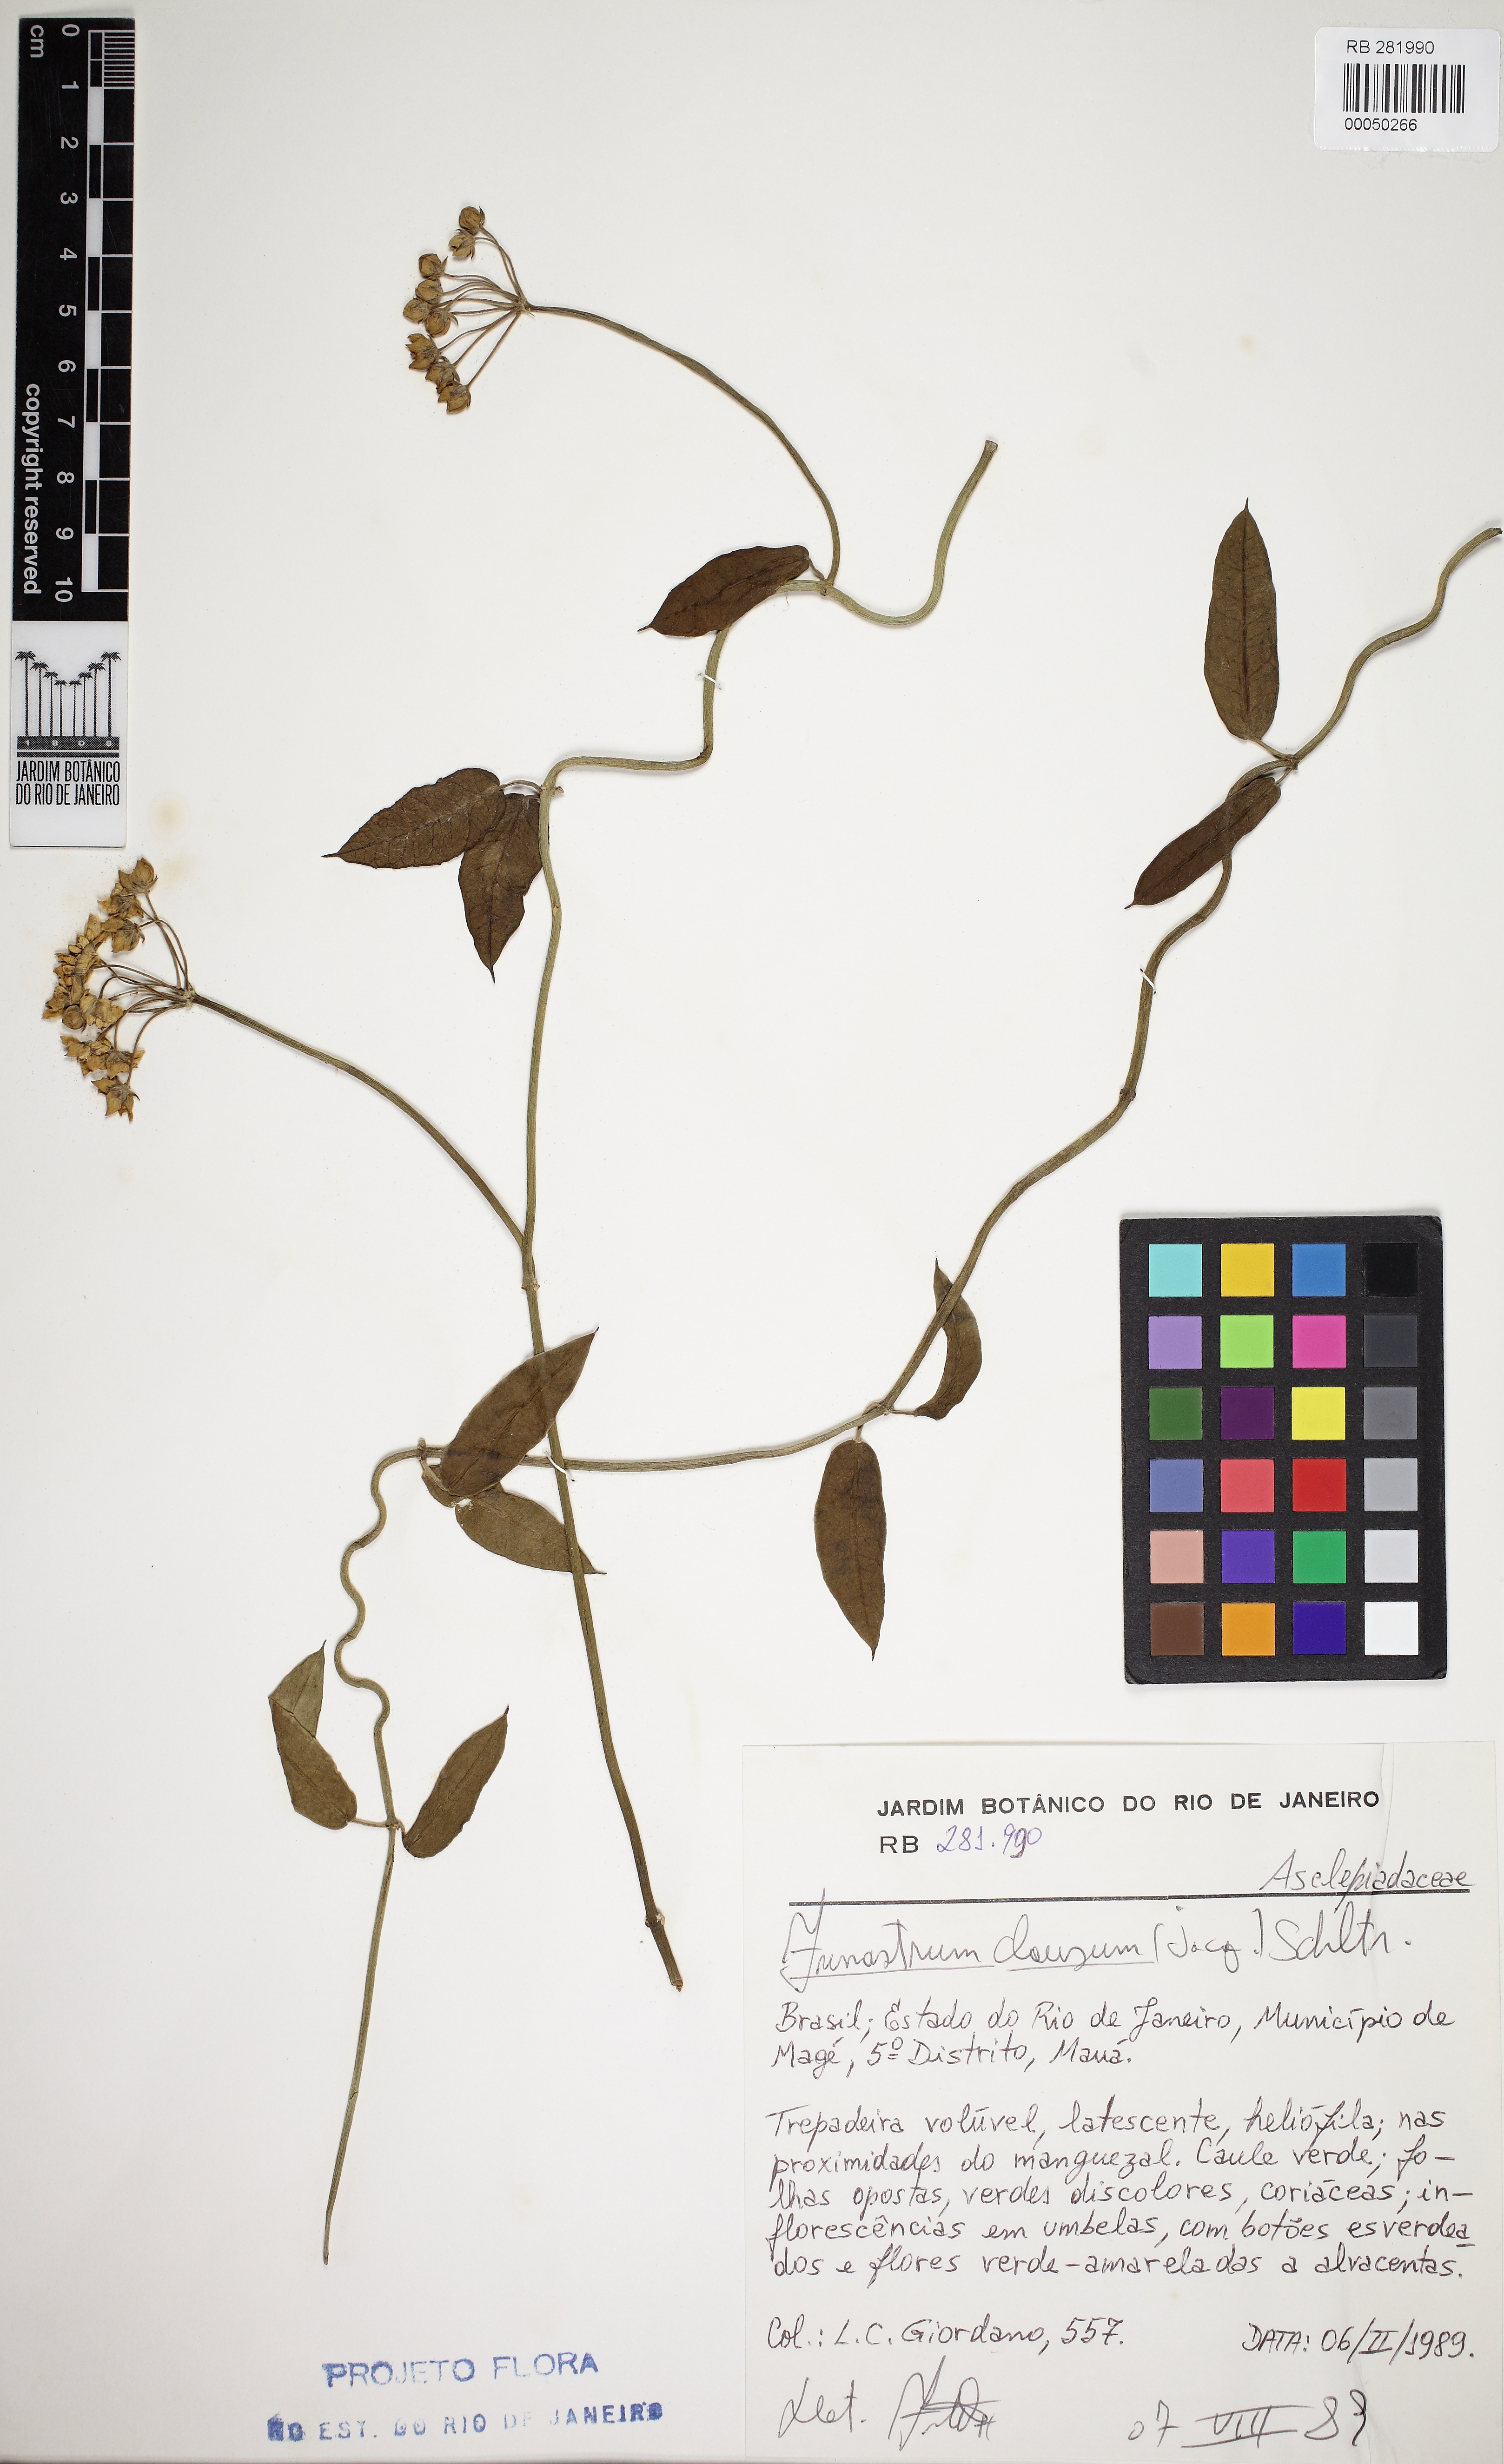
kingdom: Plantae
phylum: Tracheophyta
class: Magnoliopsida
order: Gentianales
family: Apocynaceae
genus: Funastrum
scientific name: Funastrum clausum
